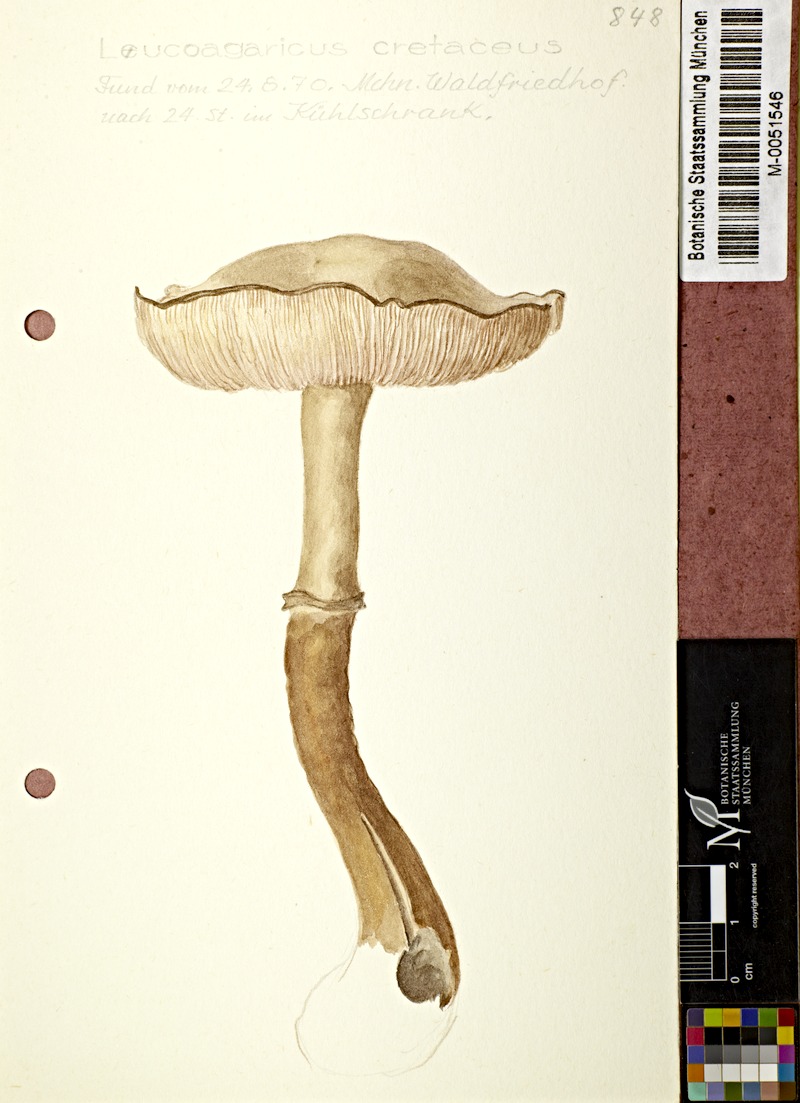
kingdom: Fungi
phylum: Basidiomycota
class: Agaricomycetes
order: Agaricales
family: Agaricaceae
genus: Leucocoprinus
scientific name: Leucocoprinus cretaceus
